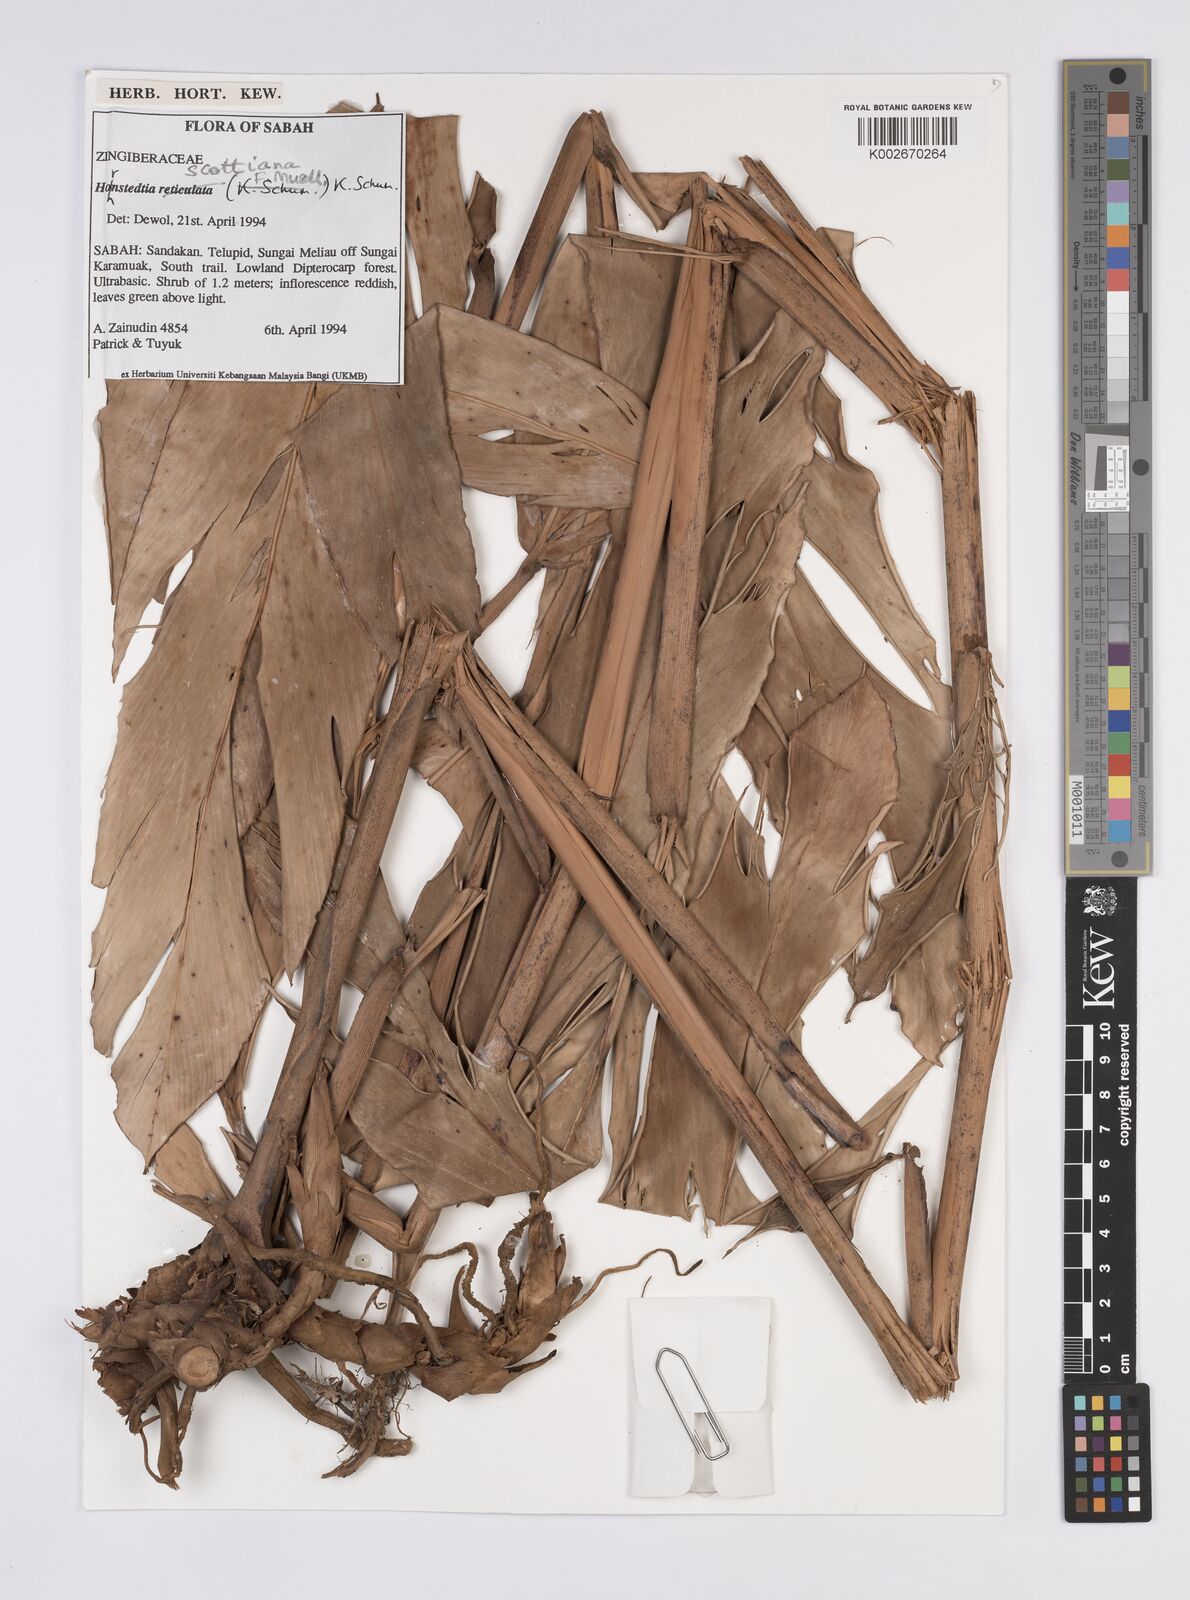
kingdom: Plantae
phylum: Tracheophyta
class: Liliopsida
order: Zingiberales
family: Zingiberaceae
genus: Hornstedtia
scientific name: Hornstedtia scottiana
